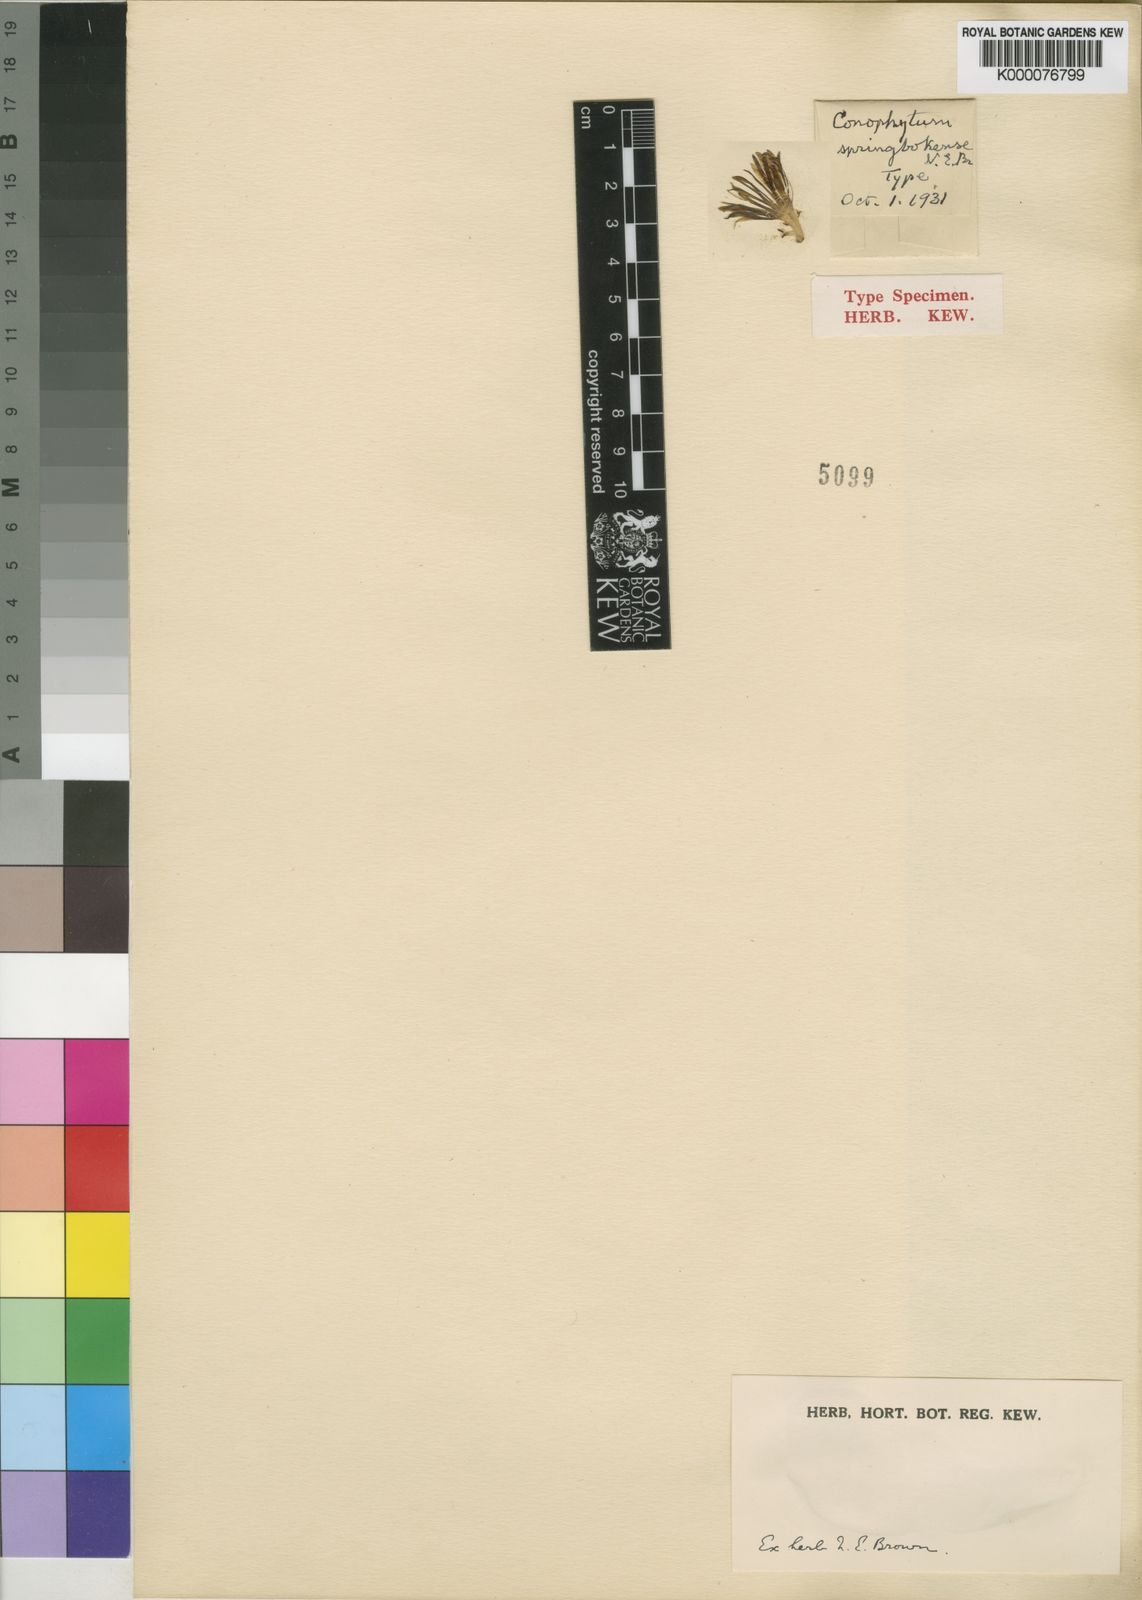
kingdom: Plantae
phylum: Tracheophyta
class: Magnoliopsida
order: Caryophyllales
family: Aizoaceae
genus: Conophytum
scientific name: Conophytum bilobum
